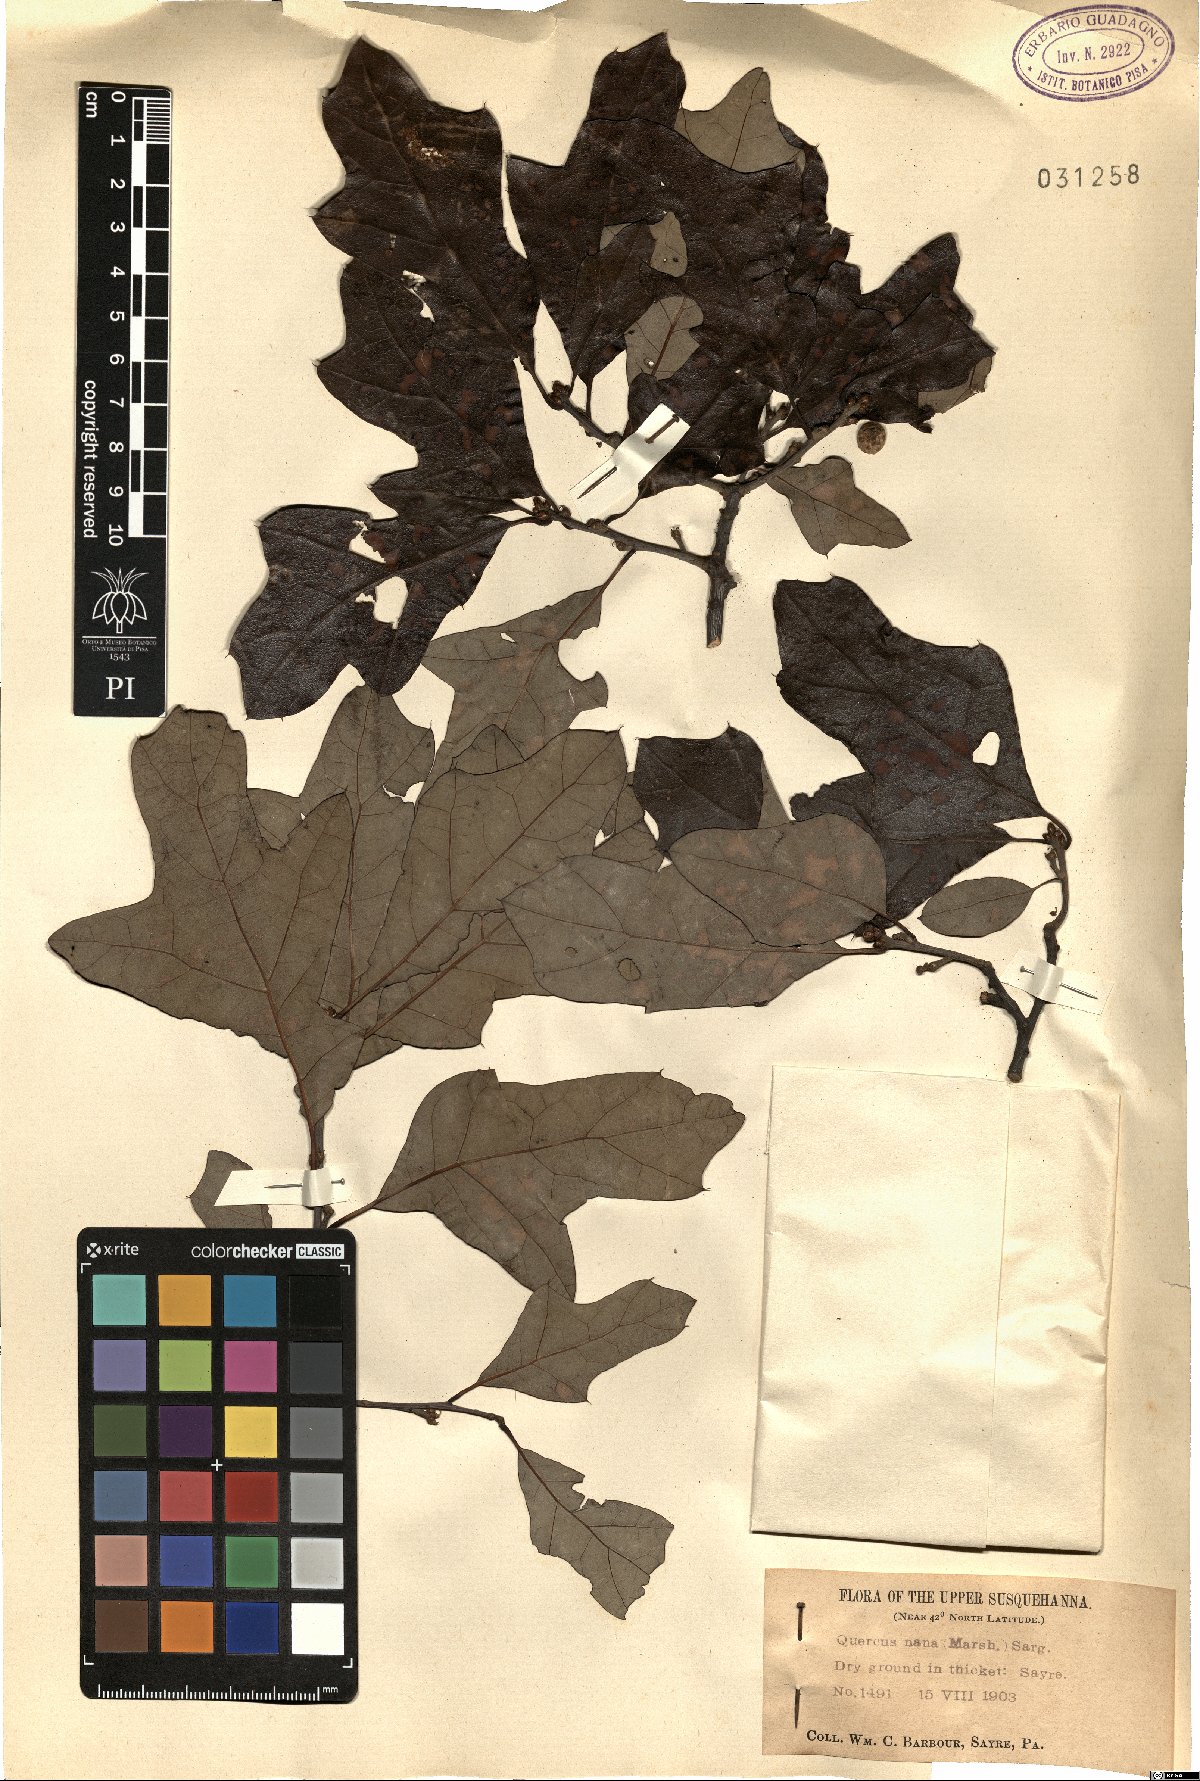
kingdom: Plantae
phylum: Tracheophyta
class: Magnoliopsida
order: Fagales
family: Fagaceae
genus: Quercus
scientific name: Quercus ilicifolia
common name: Bear oak
